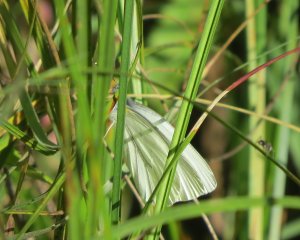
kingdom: Animalia
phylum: Arthropoda
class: Insecta
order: Lepidoptera
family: Pieridae
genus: Pieris
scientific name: Pieris rapae
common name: Cabbage White
